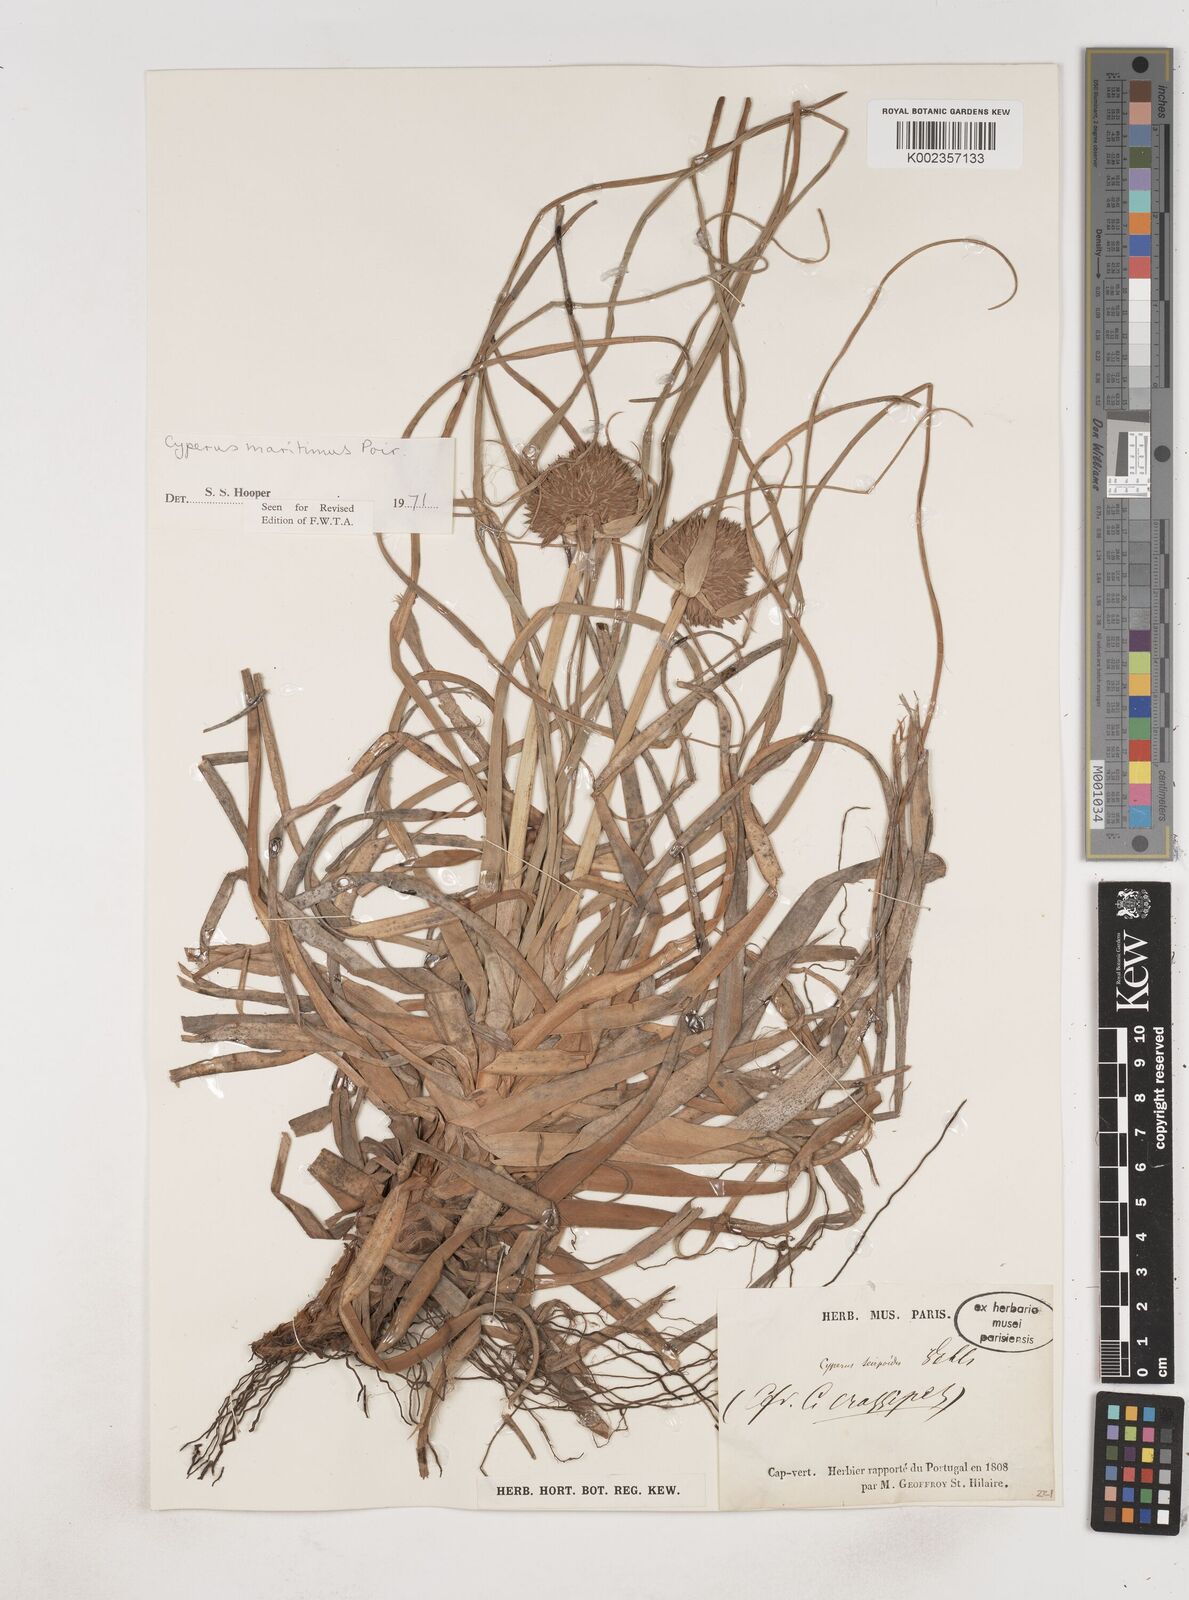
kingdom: Plantae
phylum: Tracheophyta
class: Liliopsida
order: Poales
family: Cyperaceae
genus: Cyperus
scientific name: Cyperus crassipes
